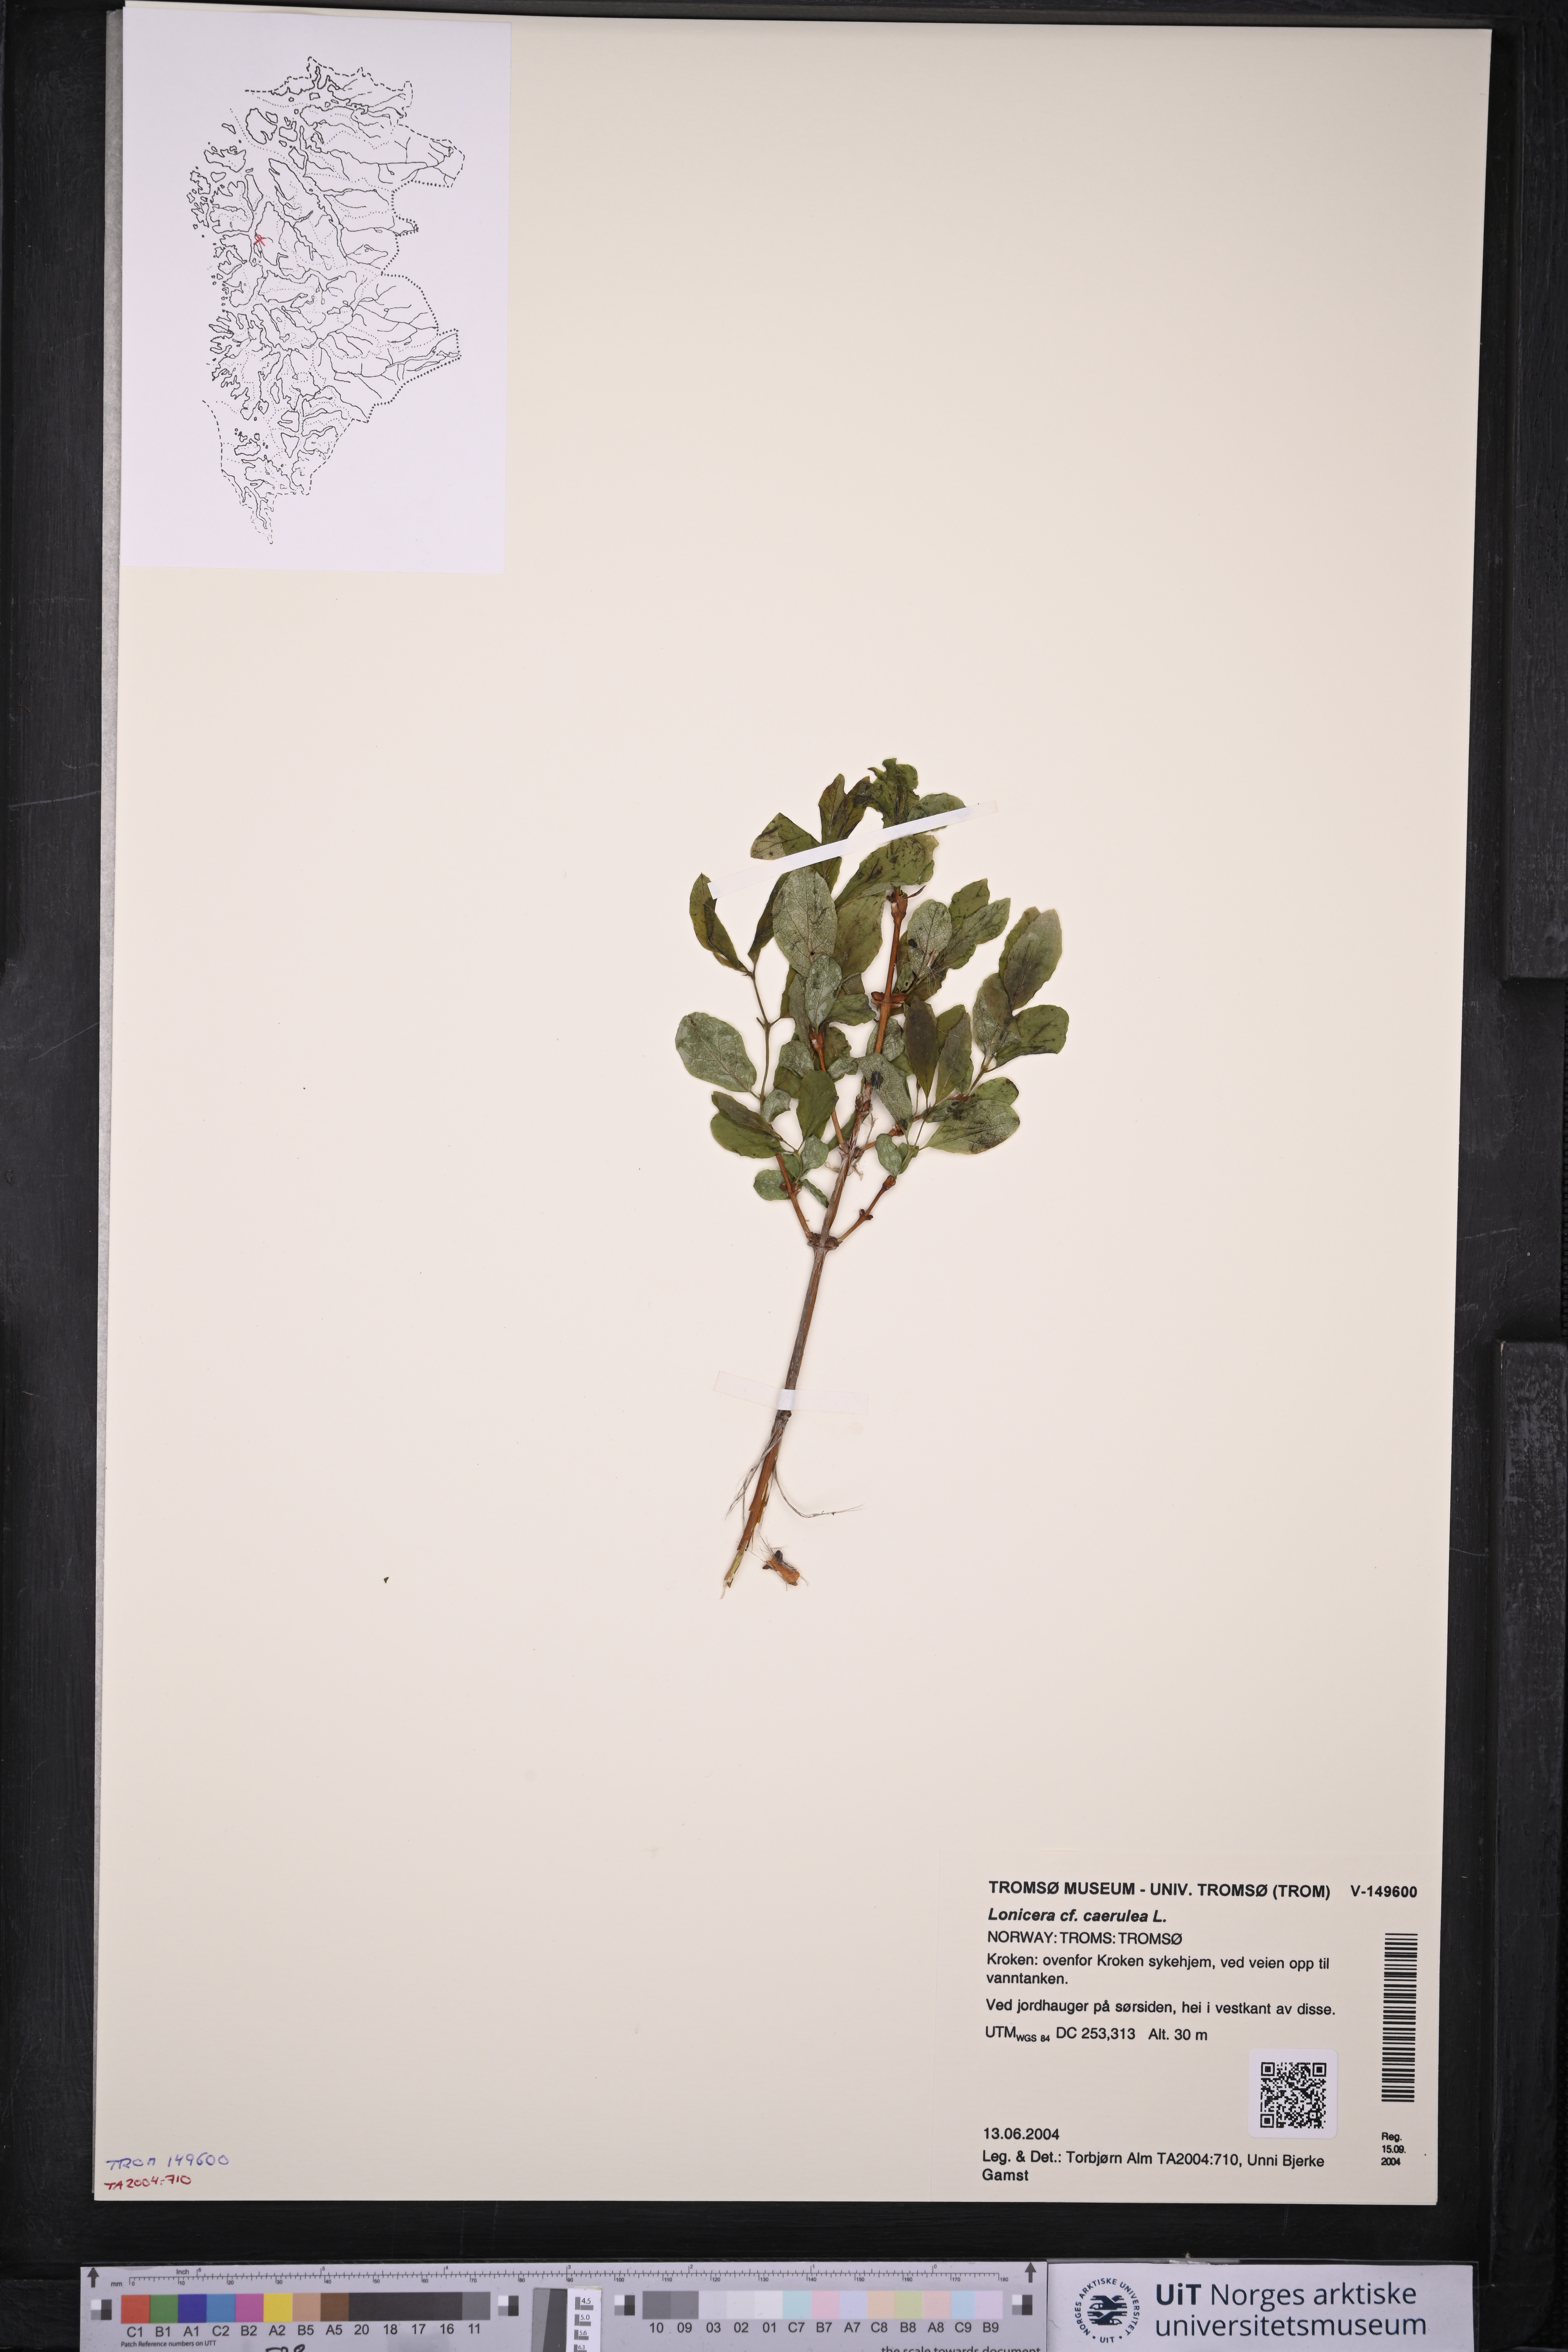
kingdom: Plantae
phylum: Tracheophyta
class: Magnoliopsida
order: Dipsacales
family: Caprifoliaceae
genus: Lonicera
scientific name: Lonicera caerulea
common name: Blue honeysuckle
